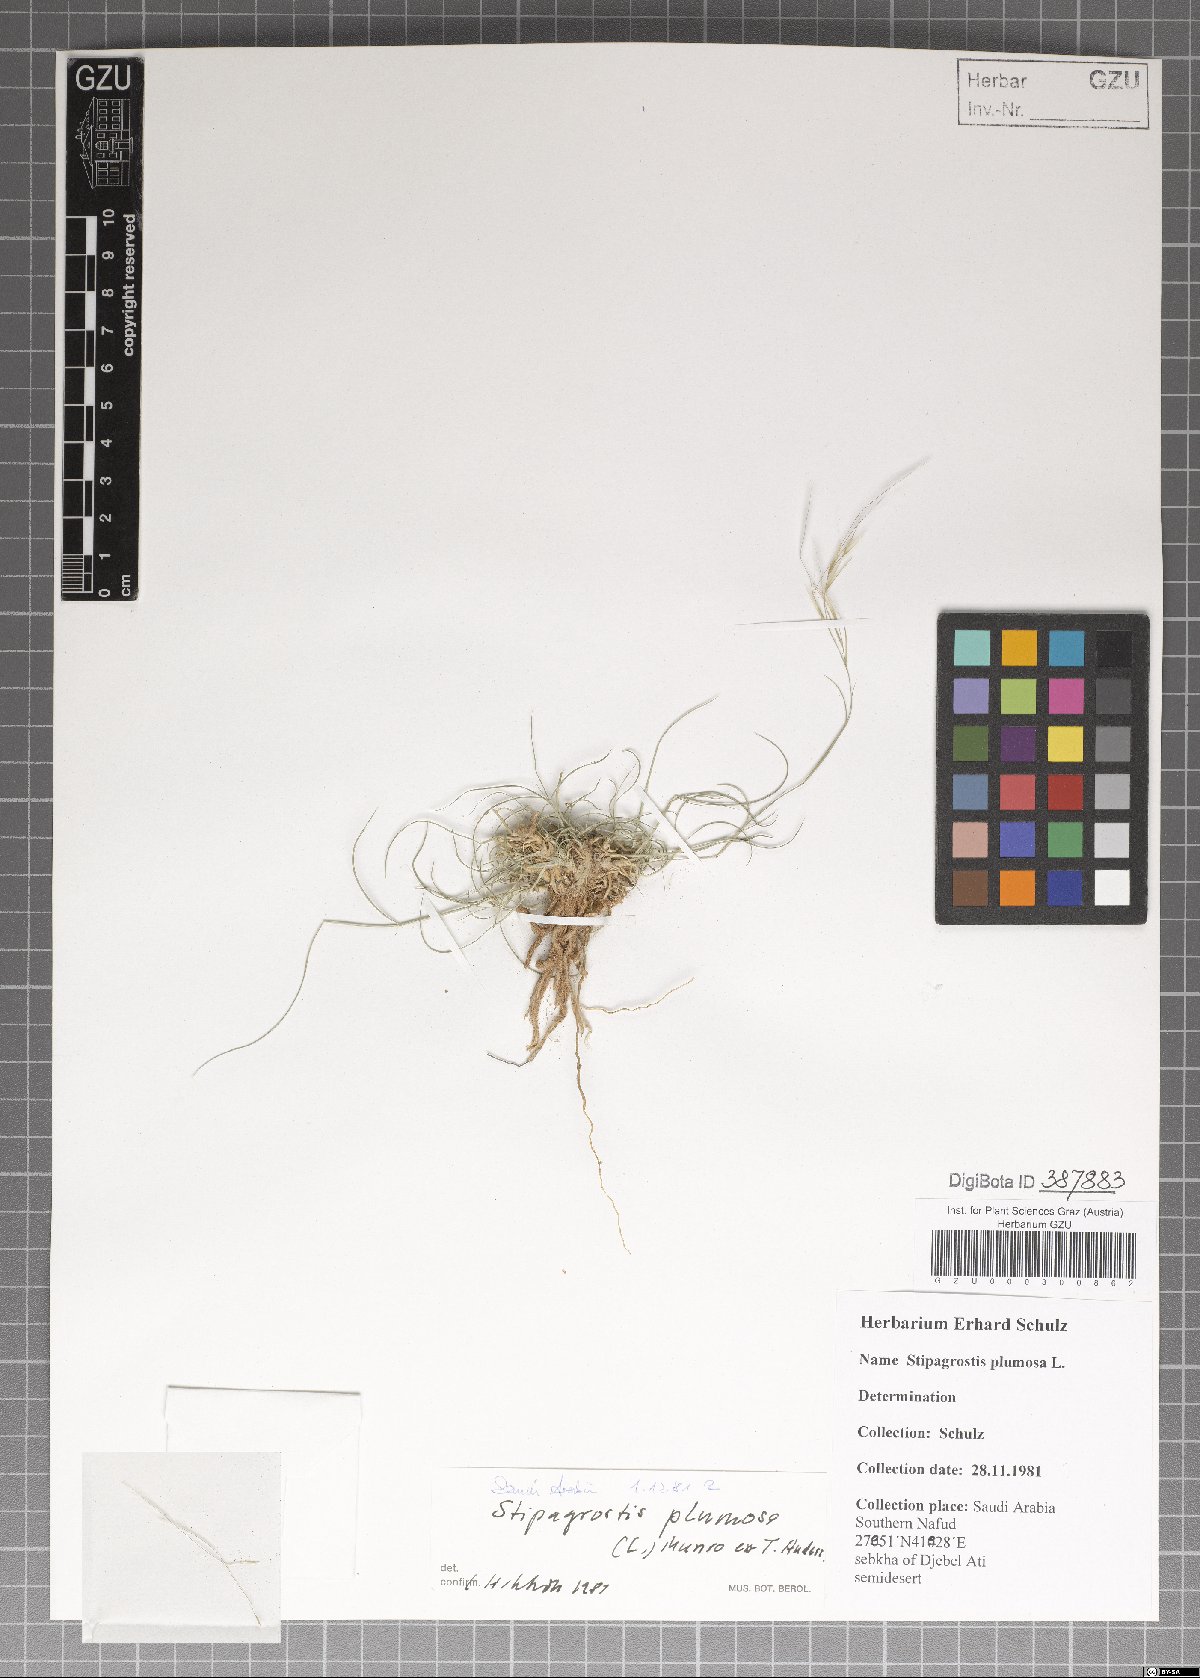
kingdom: Plantae
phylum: Tracheophyta
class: Liliopsida
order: Poales
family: Poaceae
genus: Stipagrostis
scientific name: Stipagrostis plumosa
